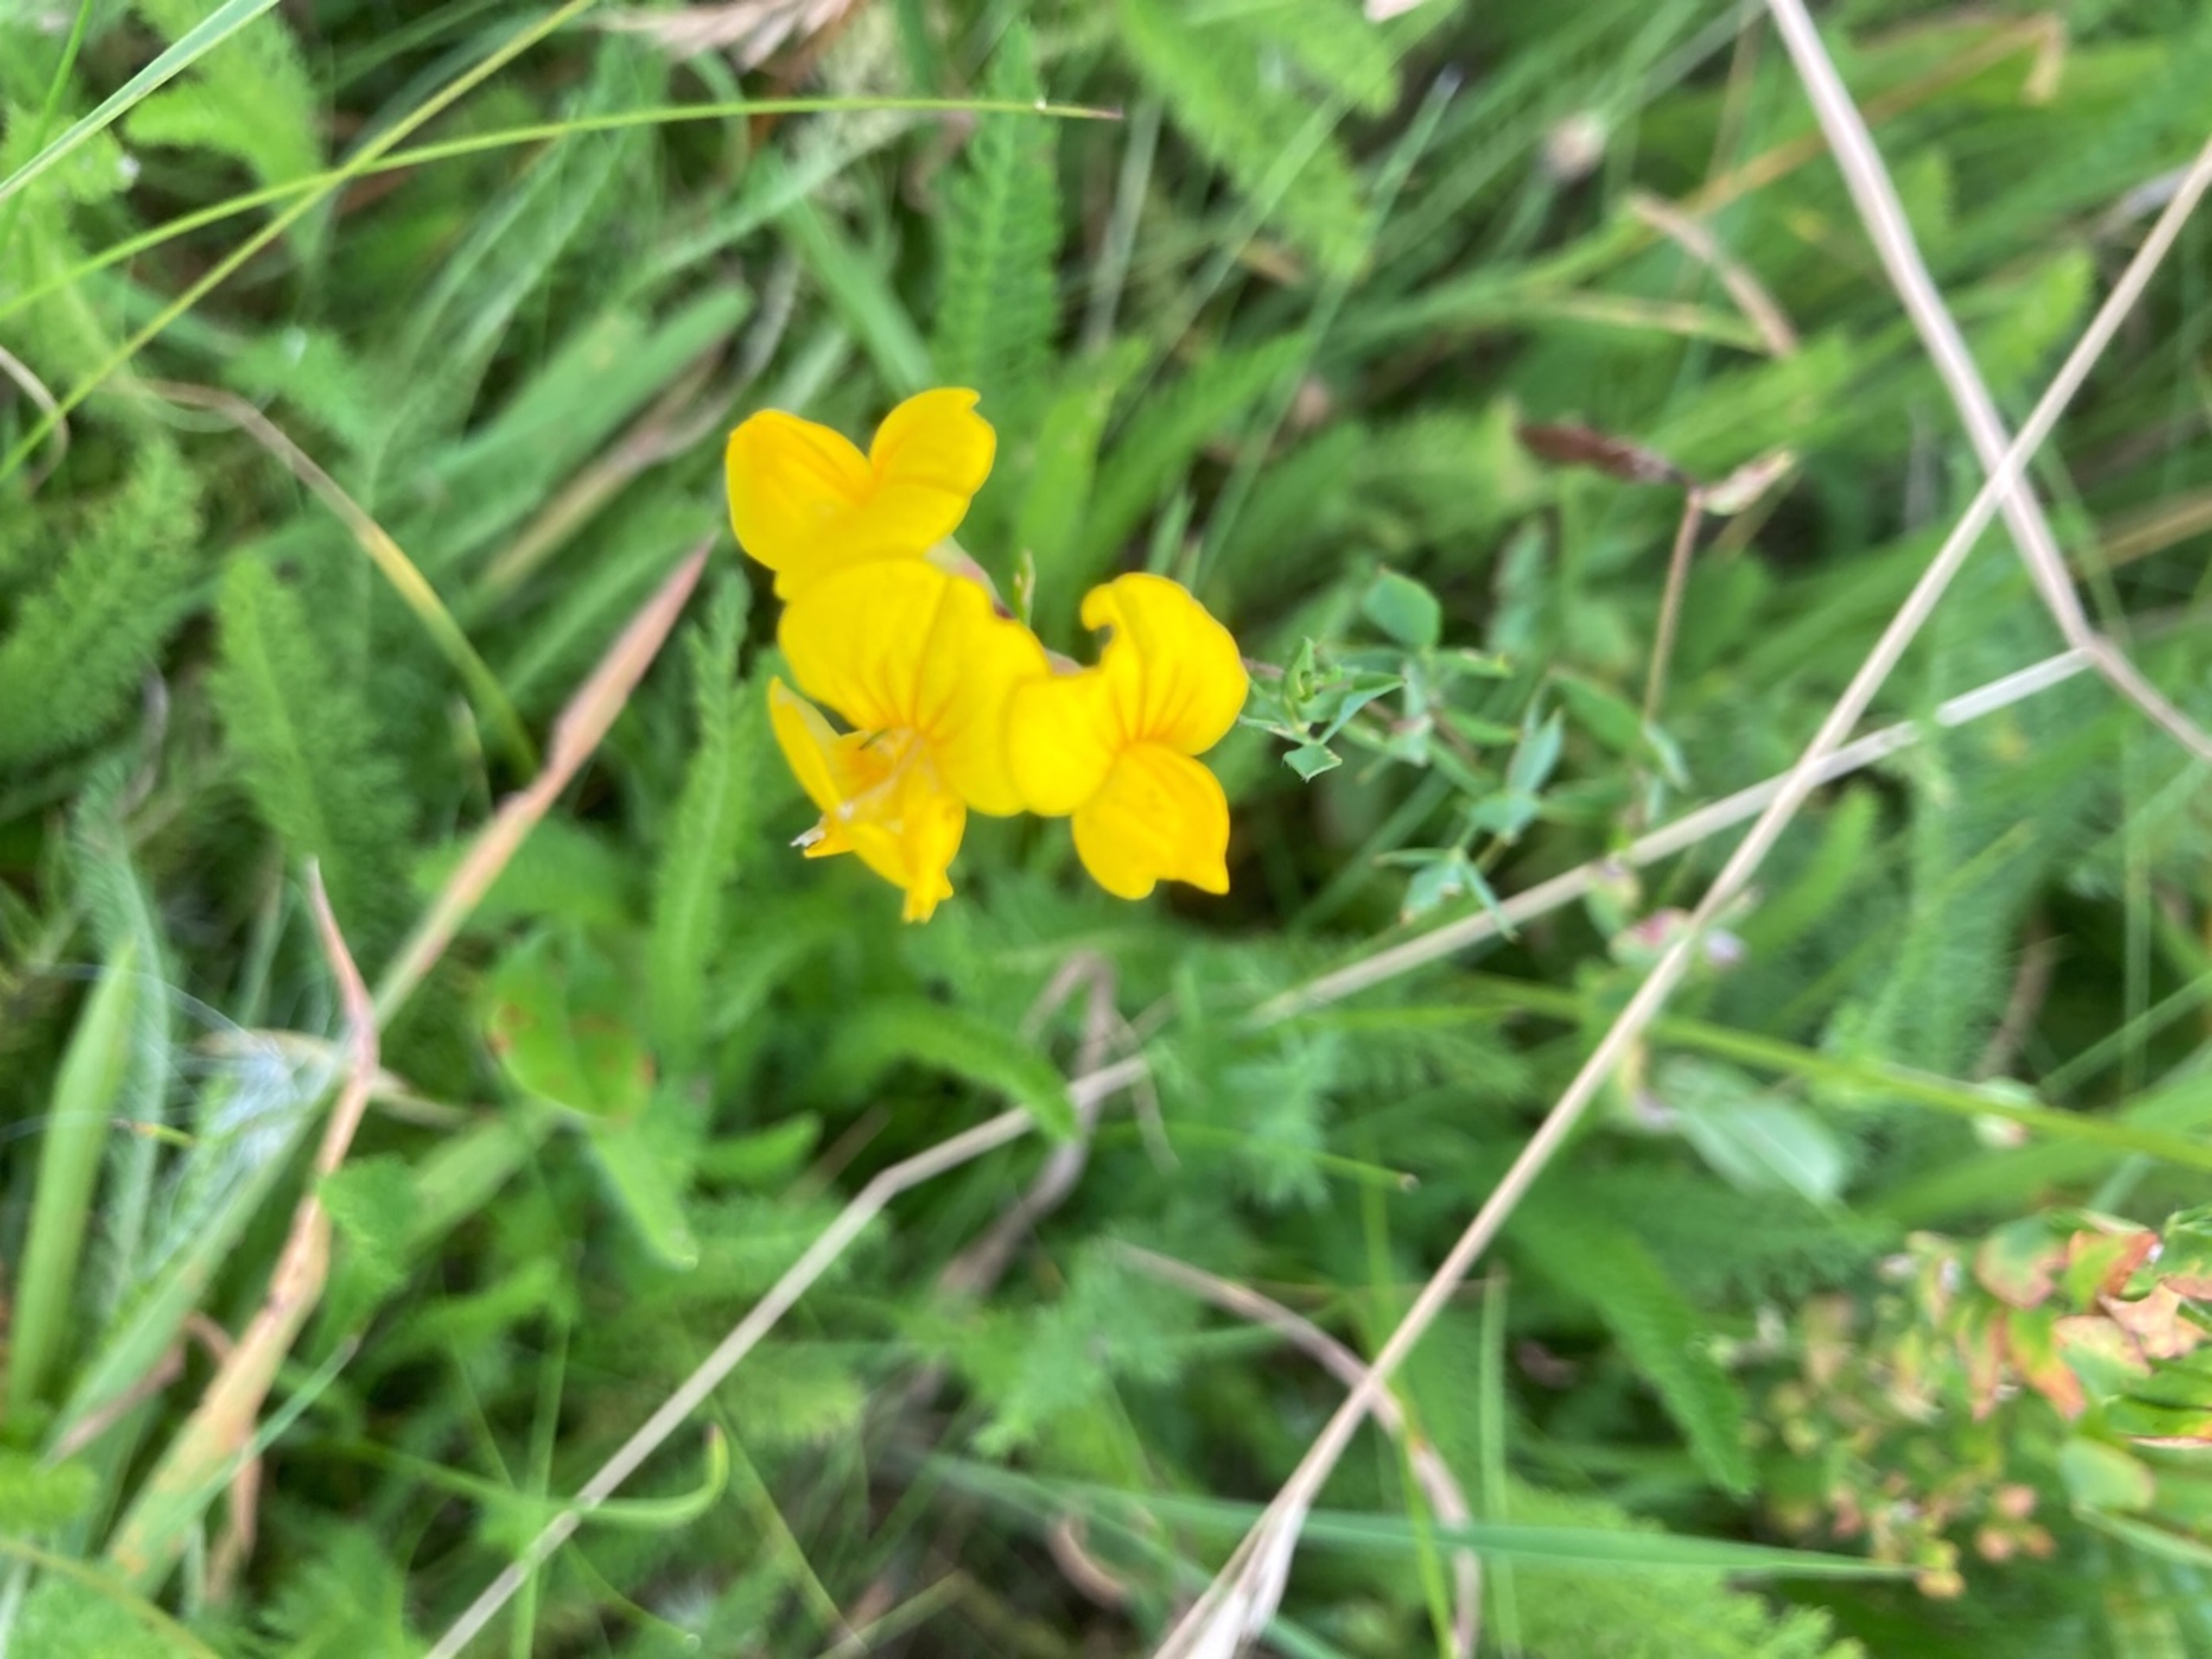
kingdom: Plantae
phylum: Tracheophyta
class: Magnoliopsida
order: Fabales
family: Fabaceae
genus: Lotus
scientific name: Lotus corniculatus
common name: Almindelig kællingetand
